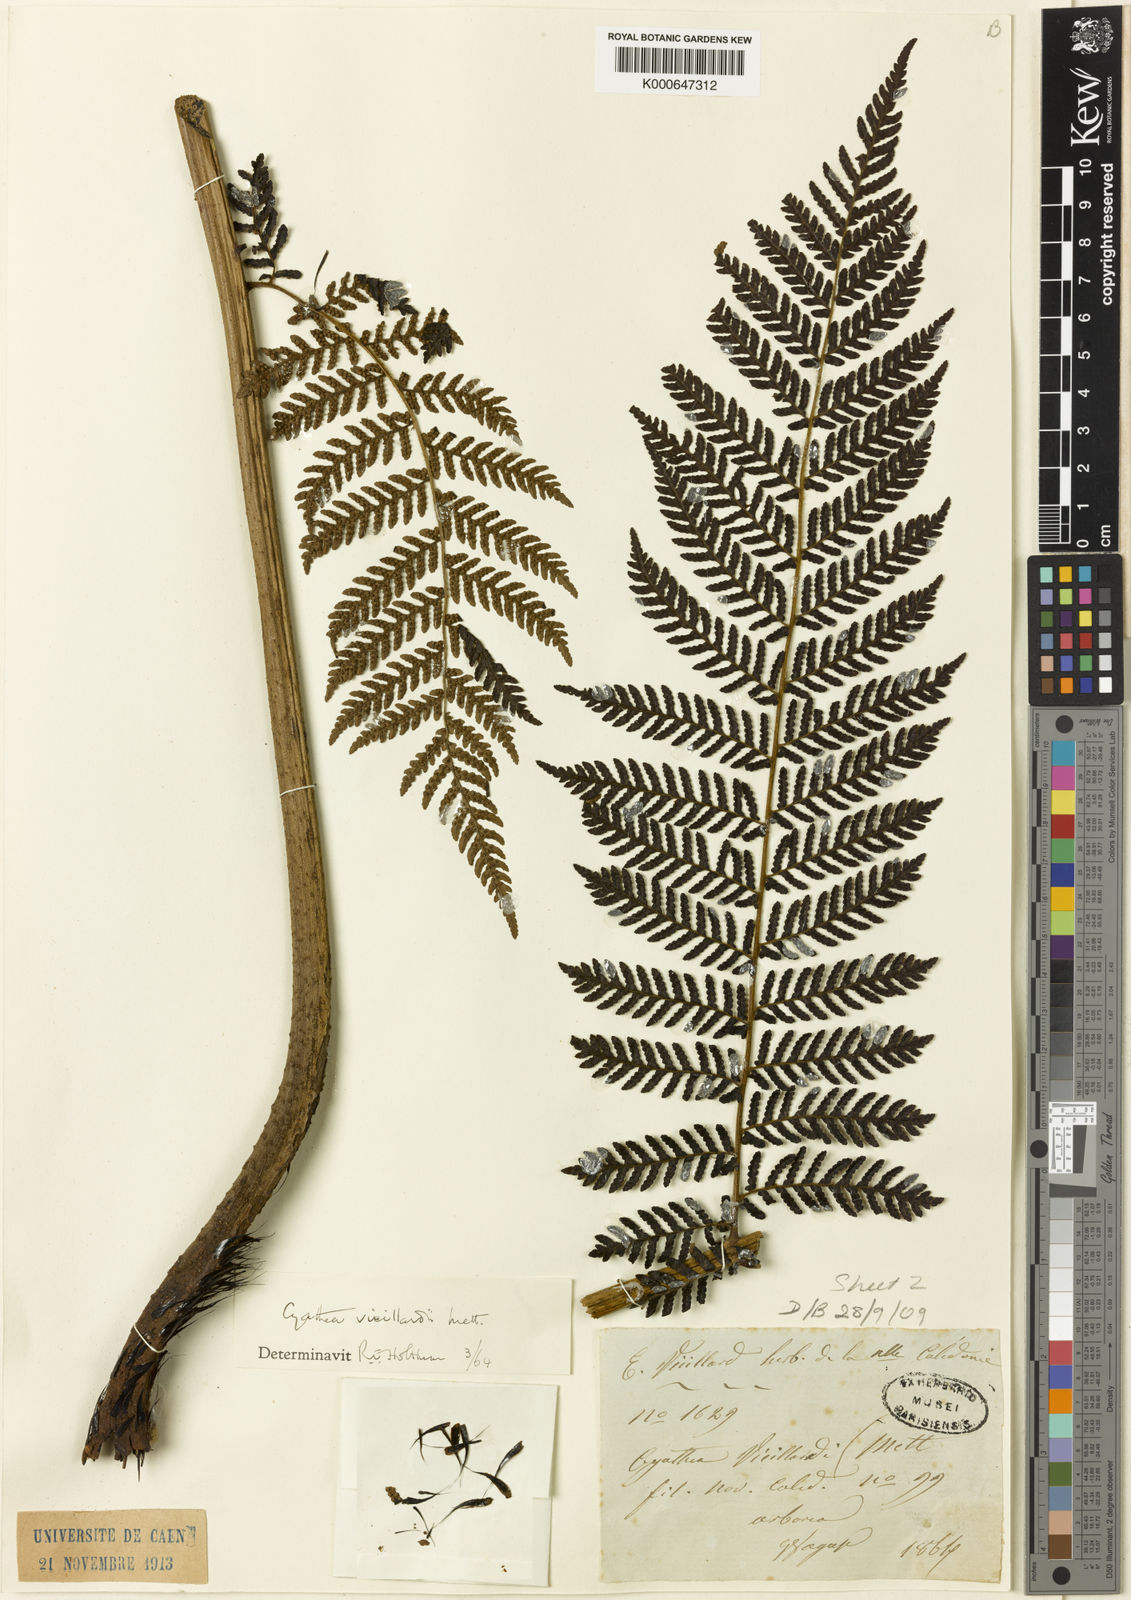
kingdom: Plantae
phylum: Tracheophyta
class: Polypodiopsida
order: Cyatheales
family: Cyatheaceae
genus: Alsophila
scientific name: Alsophila vieillardii
